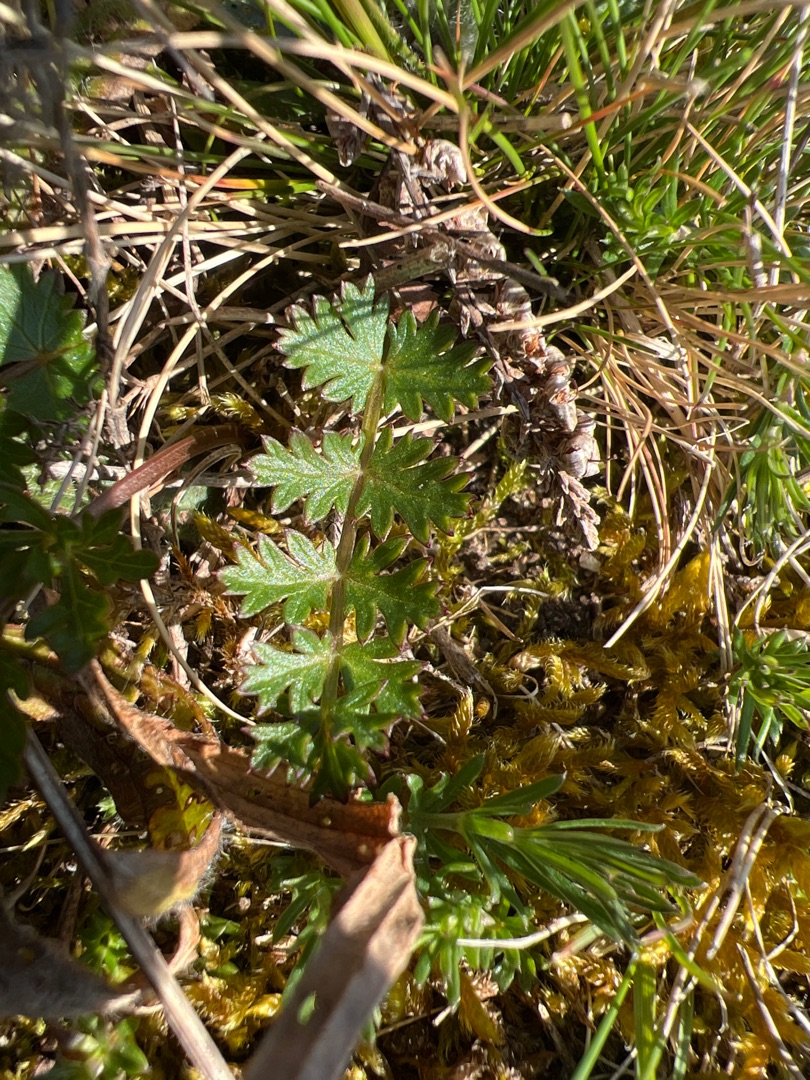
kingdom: Plantae
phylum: Tracheophyta
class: Magnoliopsida
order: Apiales
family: Apiaceae
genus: Pimpinella
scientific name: Pimpinella saxifraga
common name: Almindelig pimpinelle
